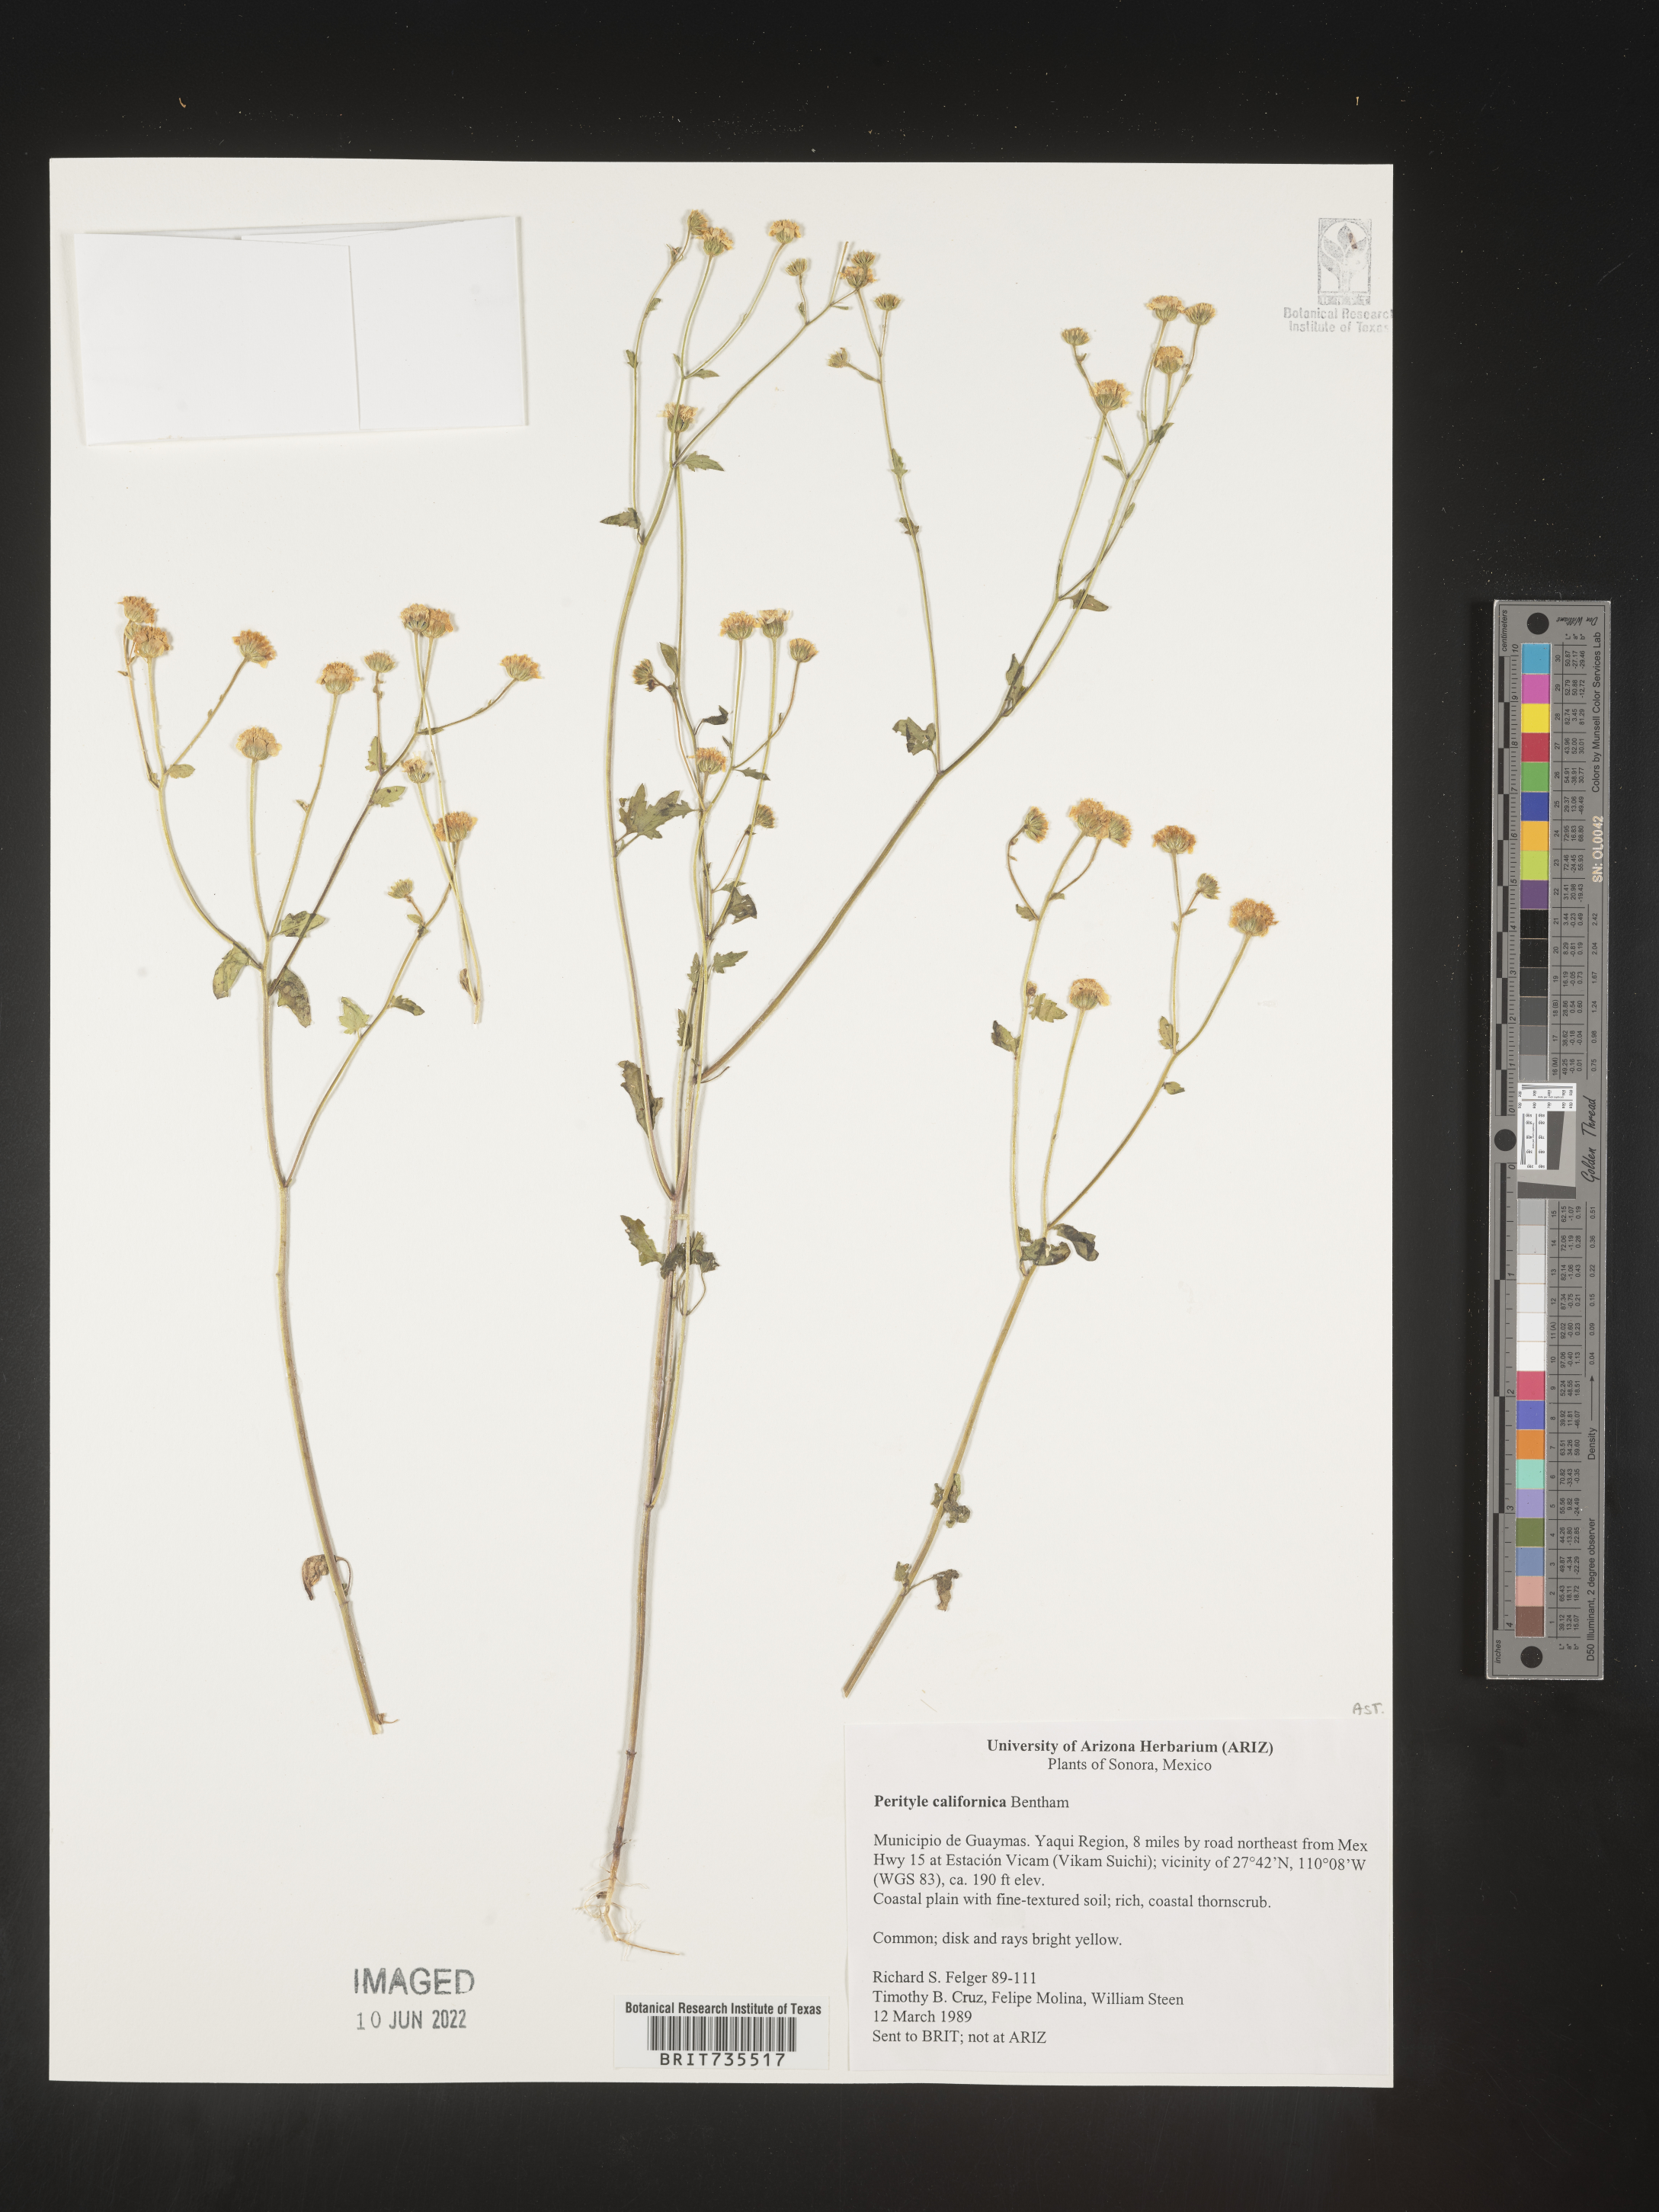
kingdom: Plantae
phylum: Tracheophyta
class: Magnoliopsida
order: Asterales
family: Asteraceae
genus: Perityle
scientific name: Perityle
